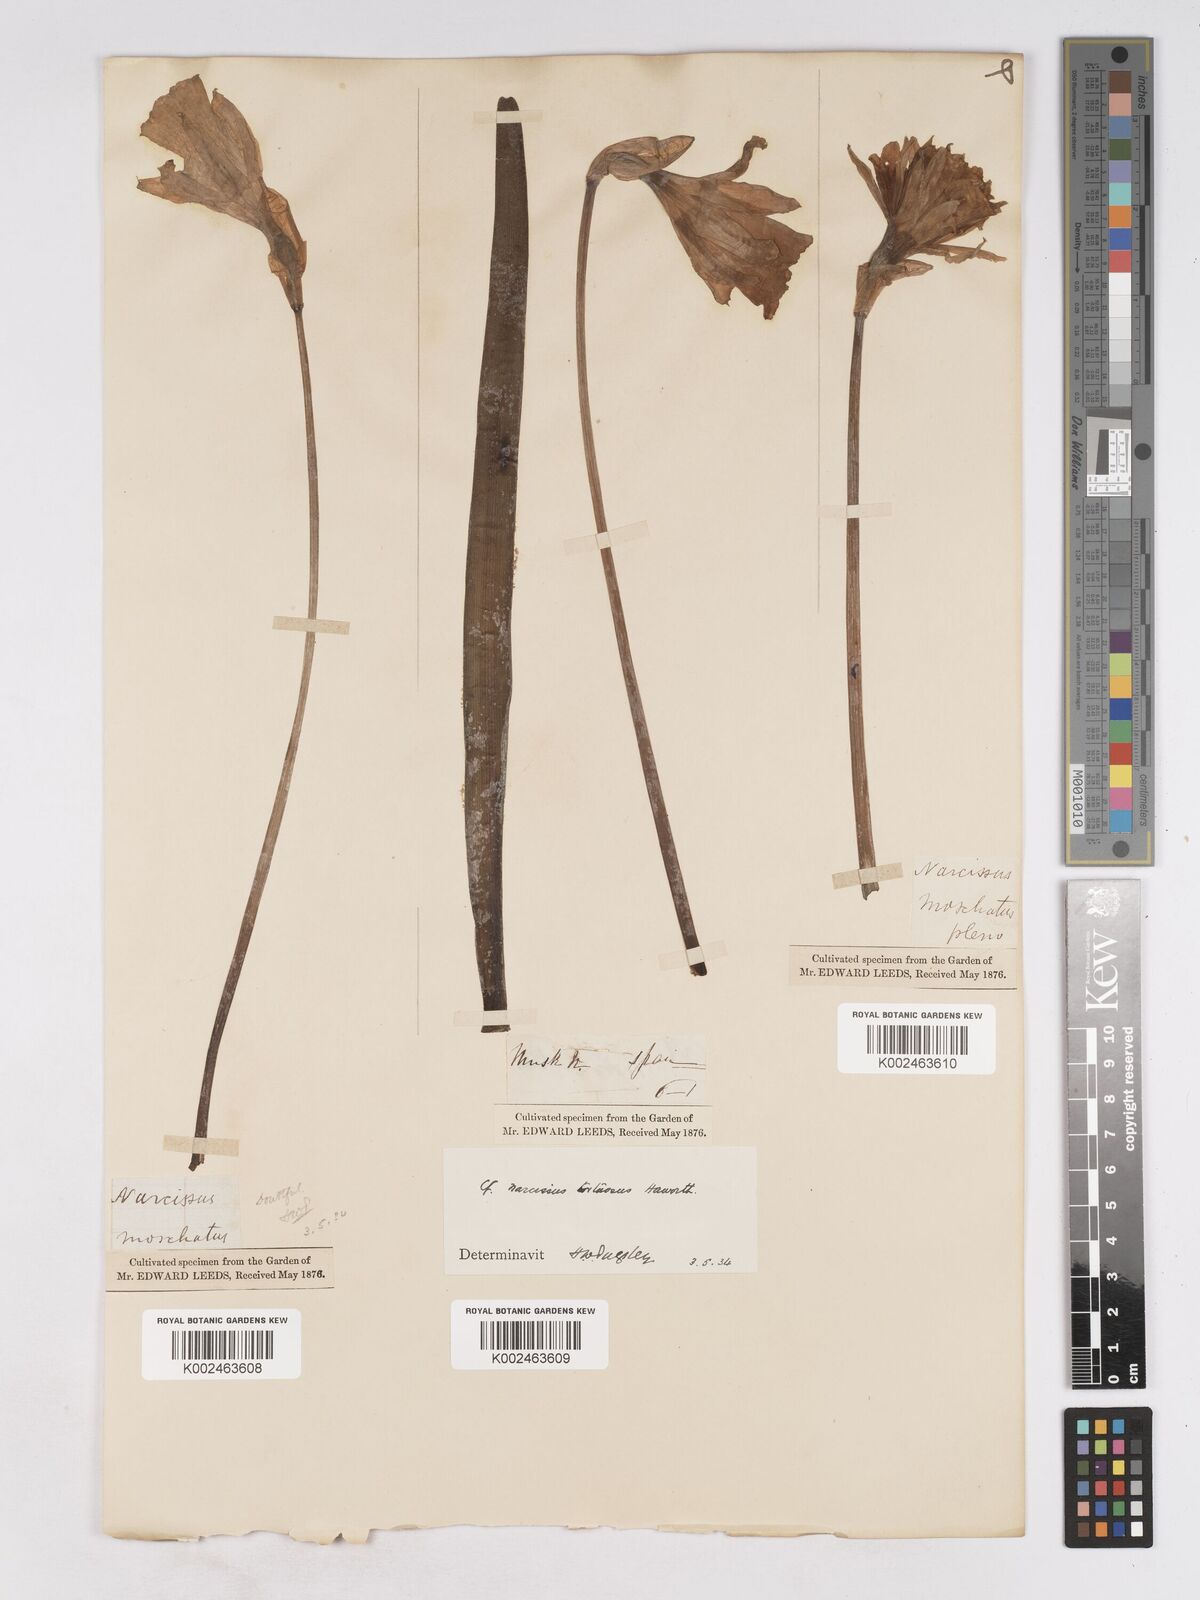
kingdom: Plantae
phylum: Tracheophyta
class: Liliopsida
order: Asparagales
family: Amaryllidaceae
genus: Narcissus
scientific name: Narcissus moschatus
